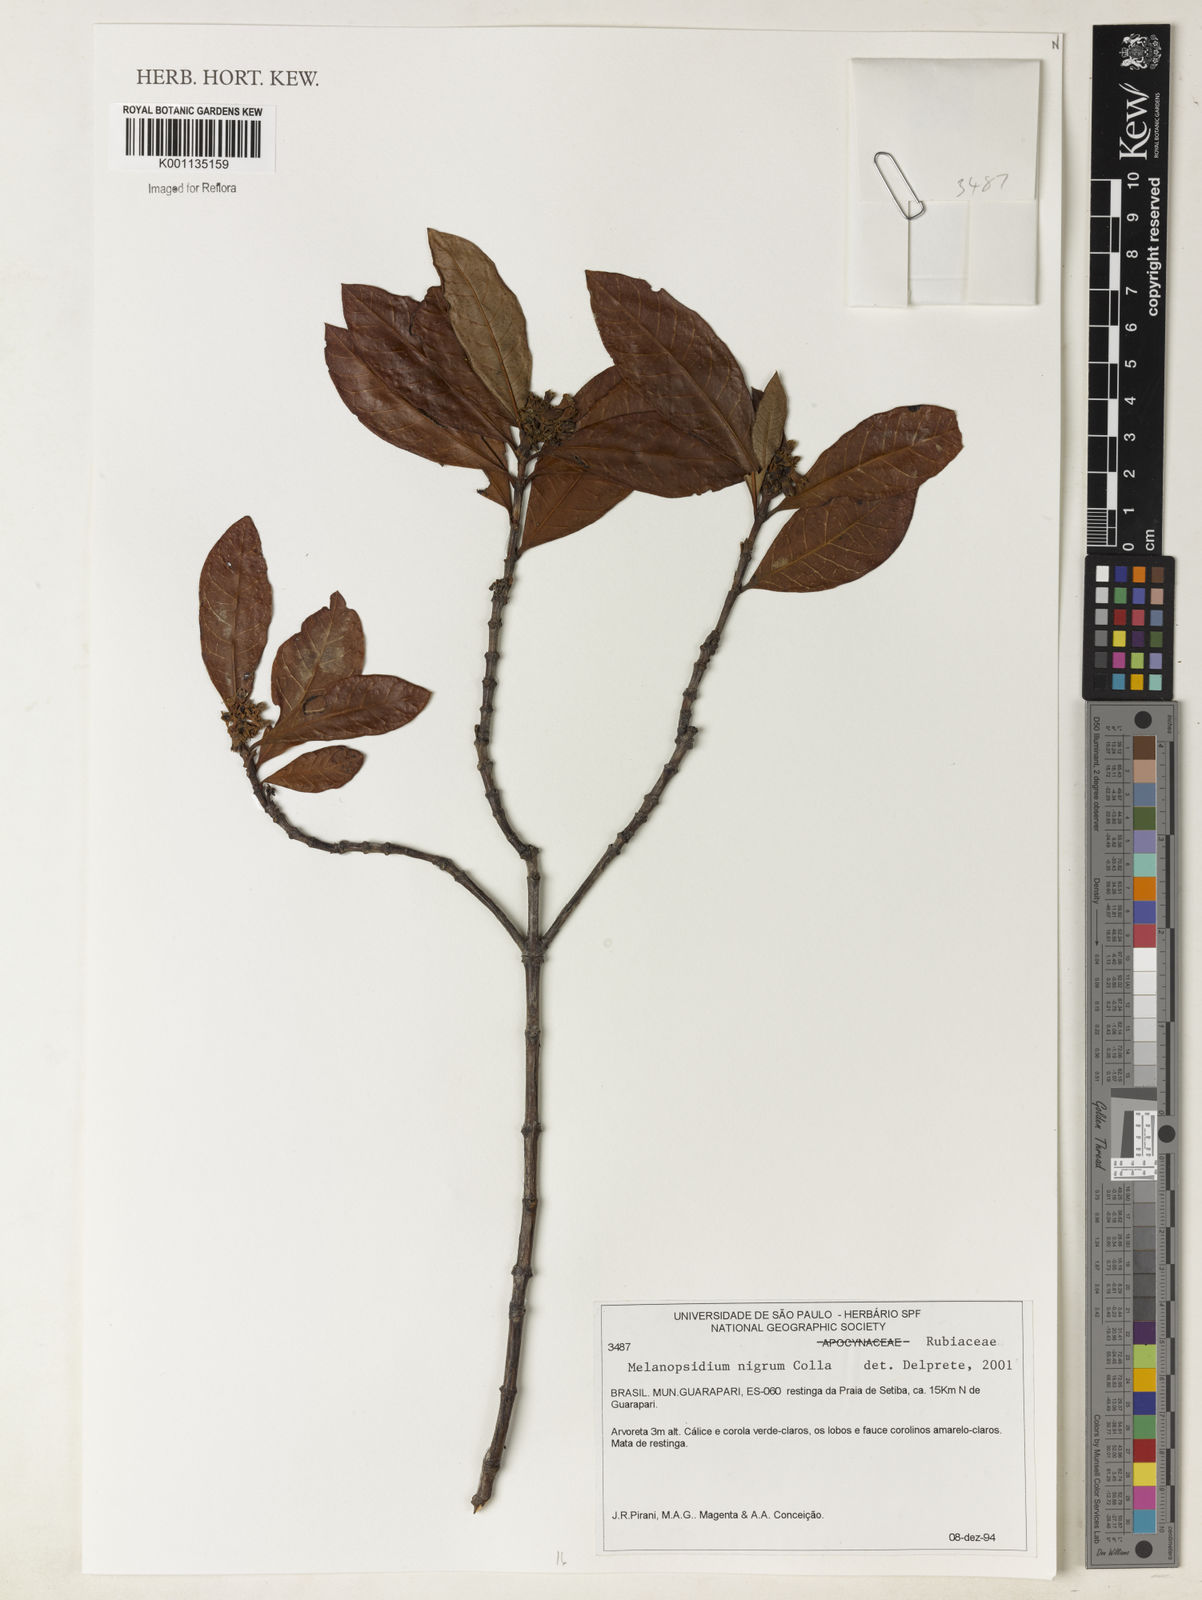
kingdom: Plantae
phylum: Tracheophyta
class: Magnoliopsida
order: Gentianales
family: Rubiaceae
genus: Melanopsidium
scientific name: Melanopsidium nigrum
